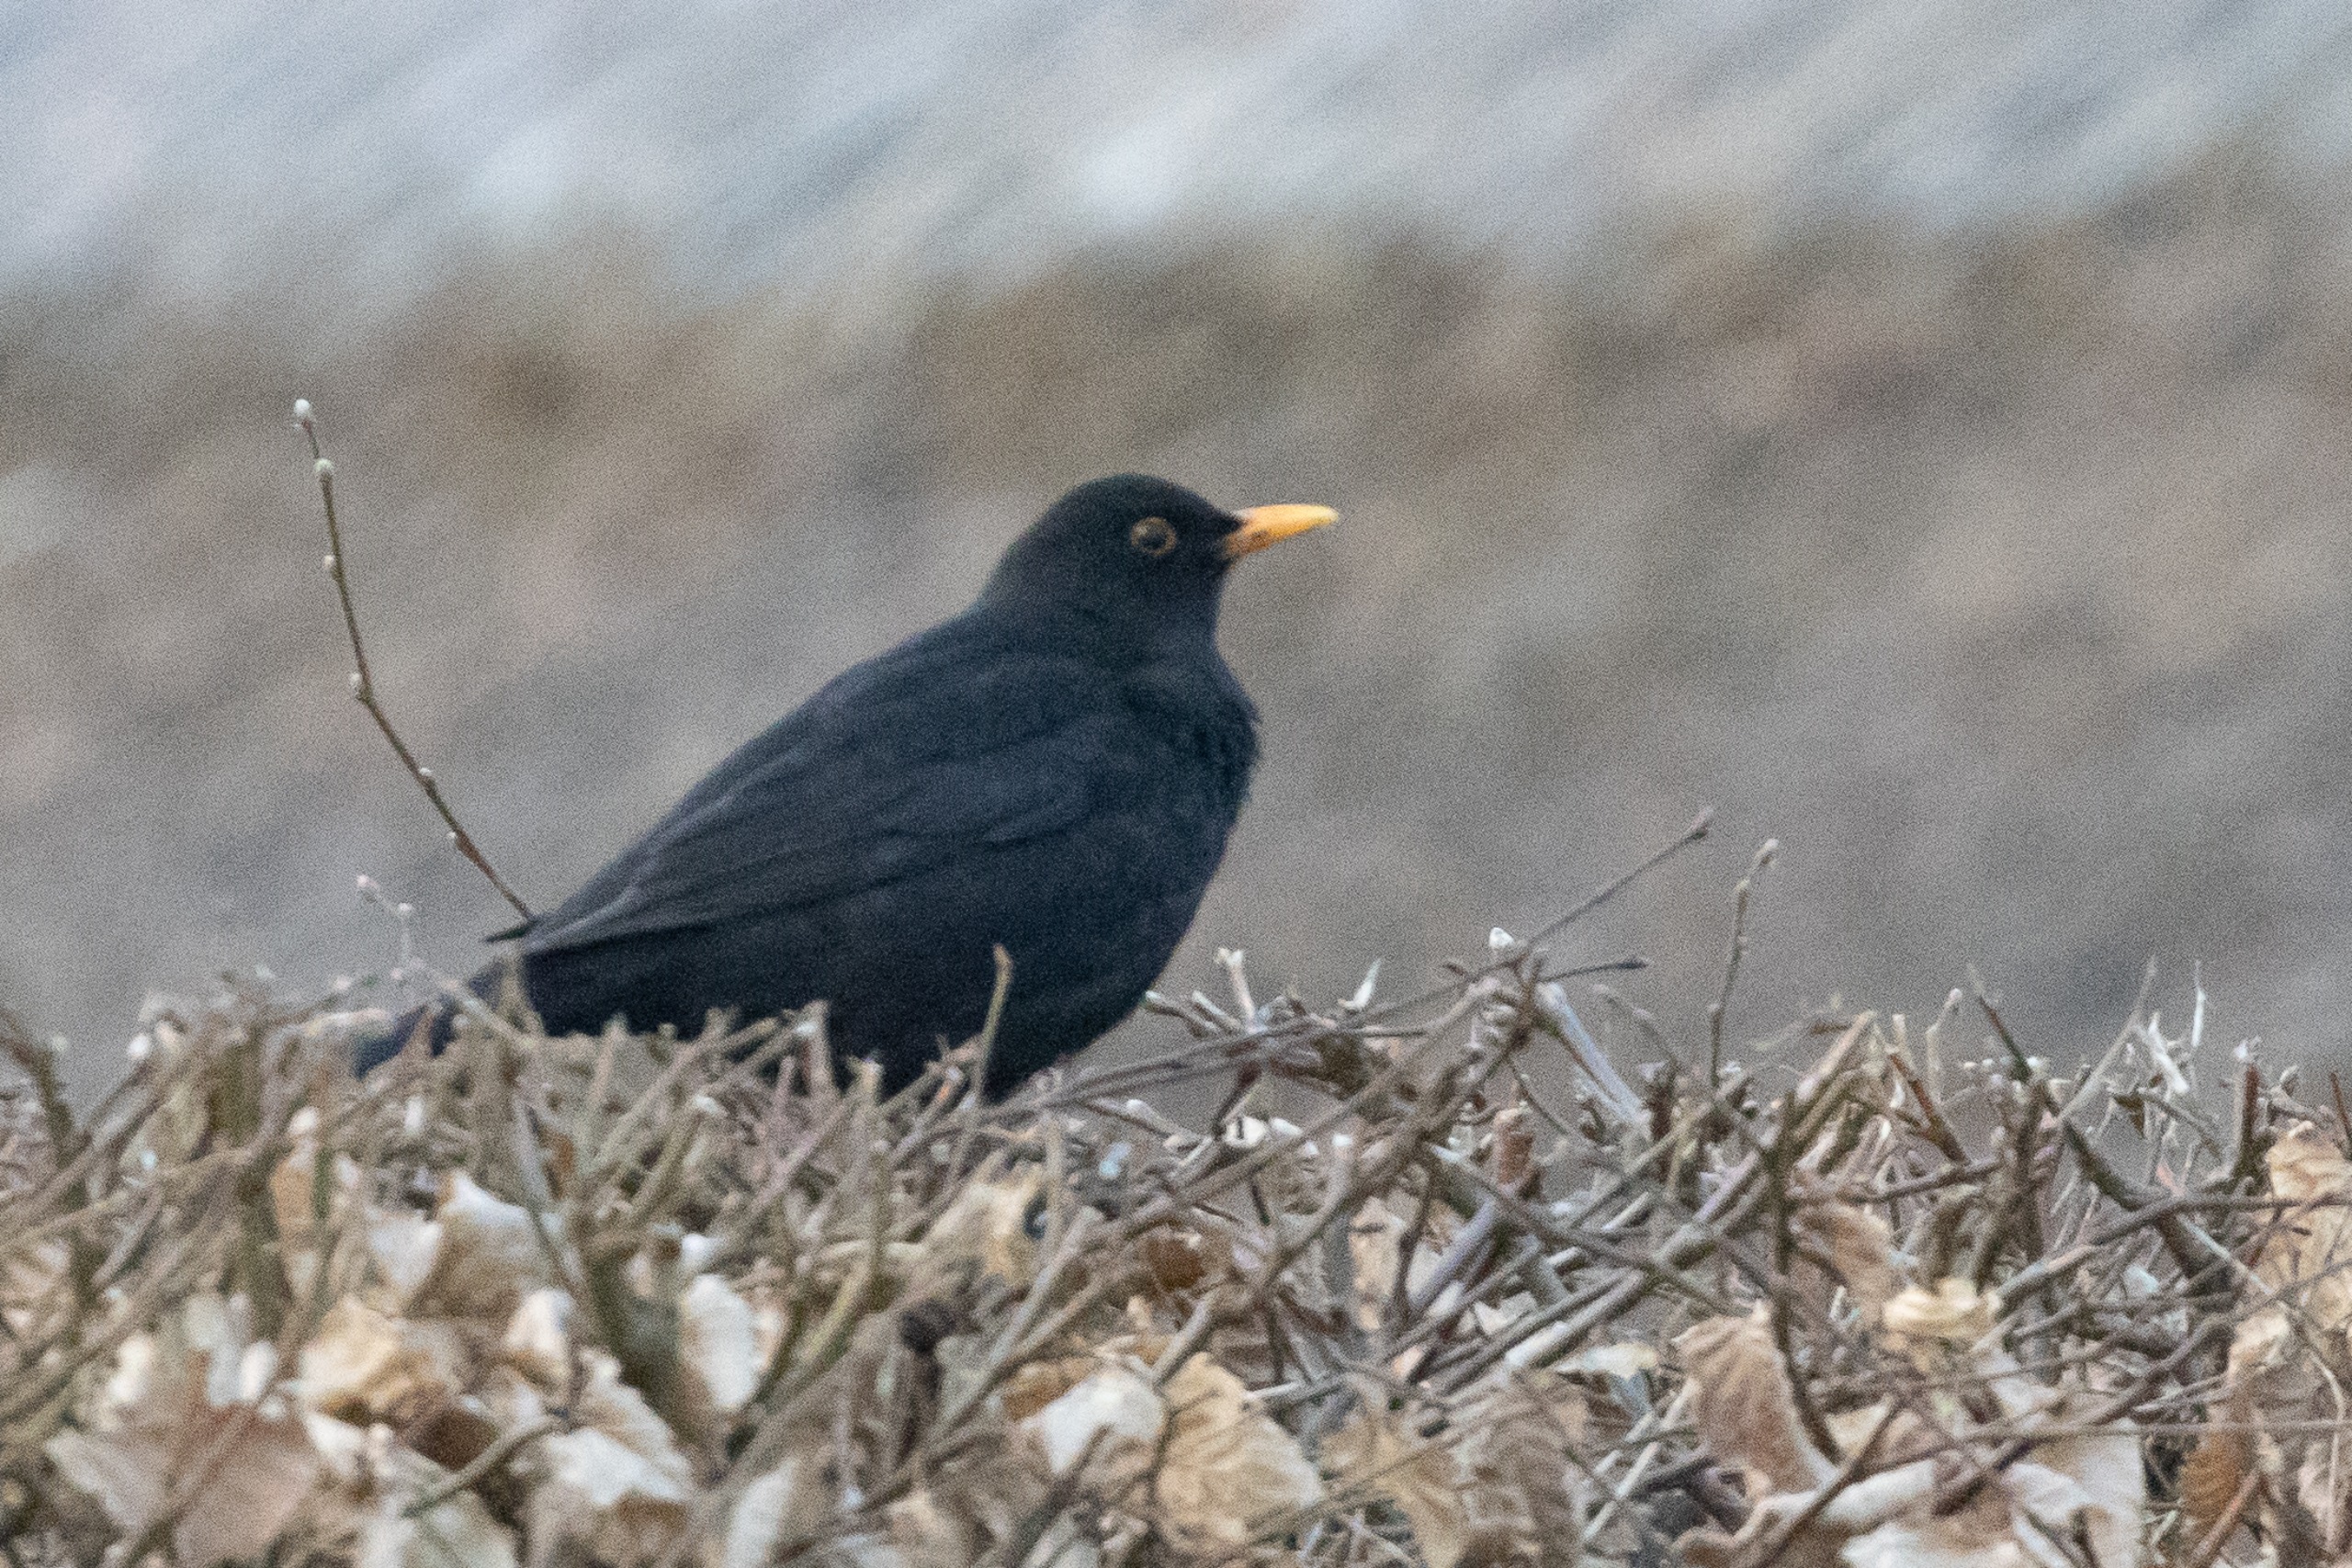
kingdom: Animalia
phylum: Chordata
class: Aves
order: Passeriformes
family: Turdidae
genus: Turdus
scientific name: Turdus merula
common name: Solsort
